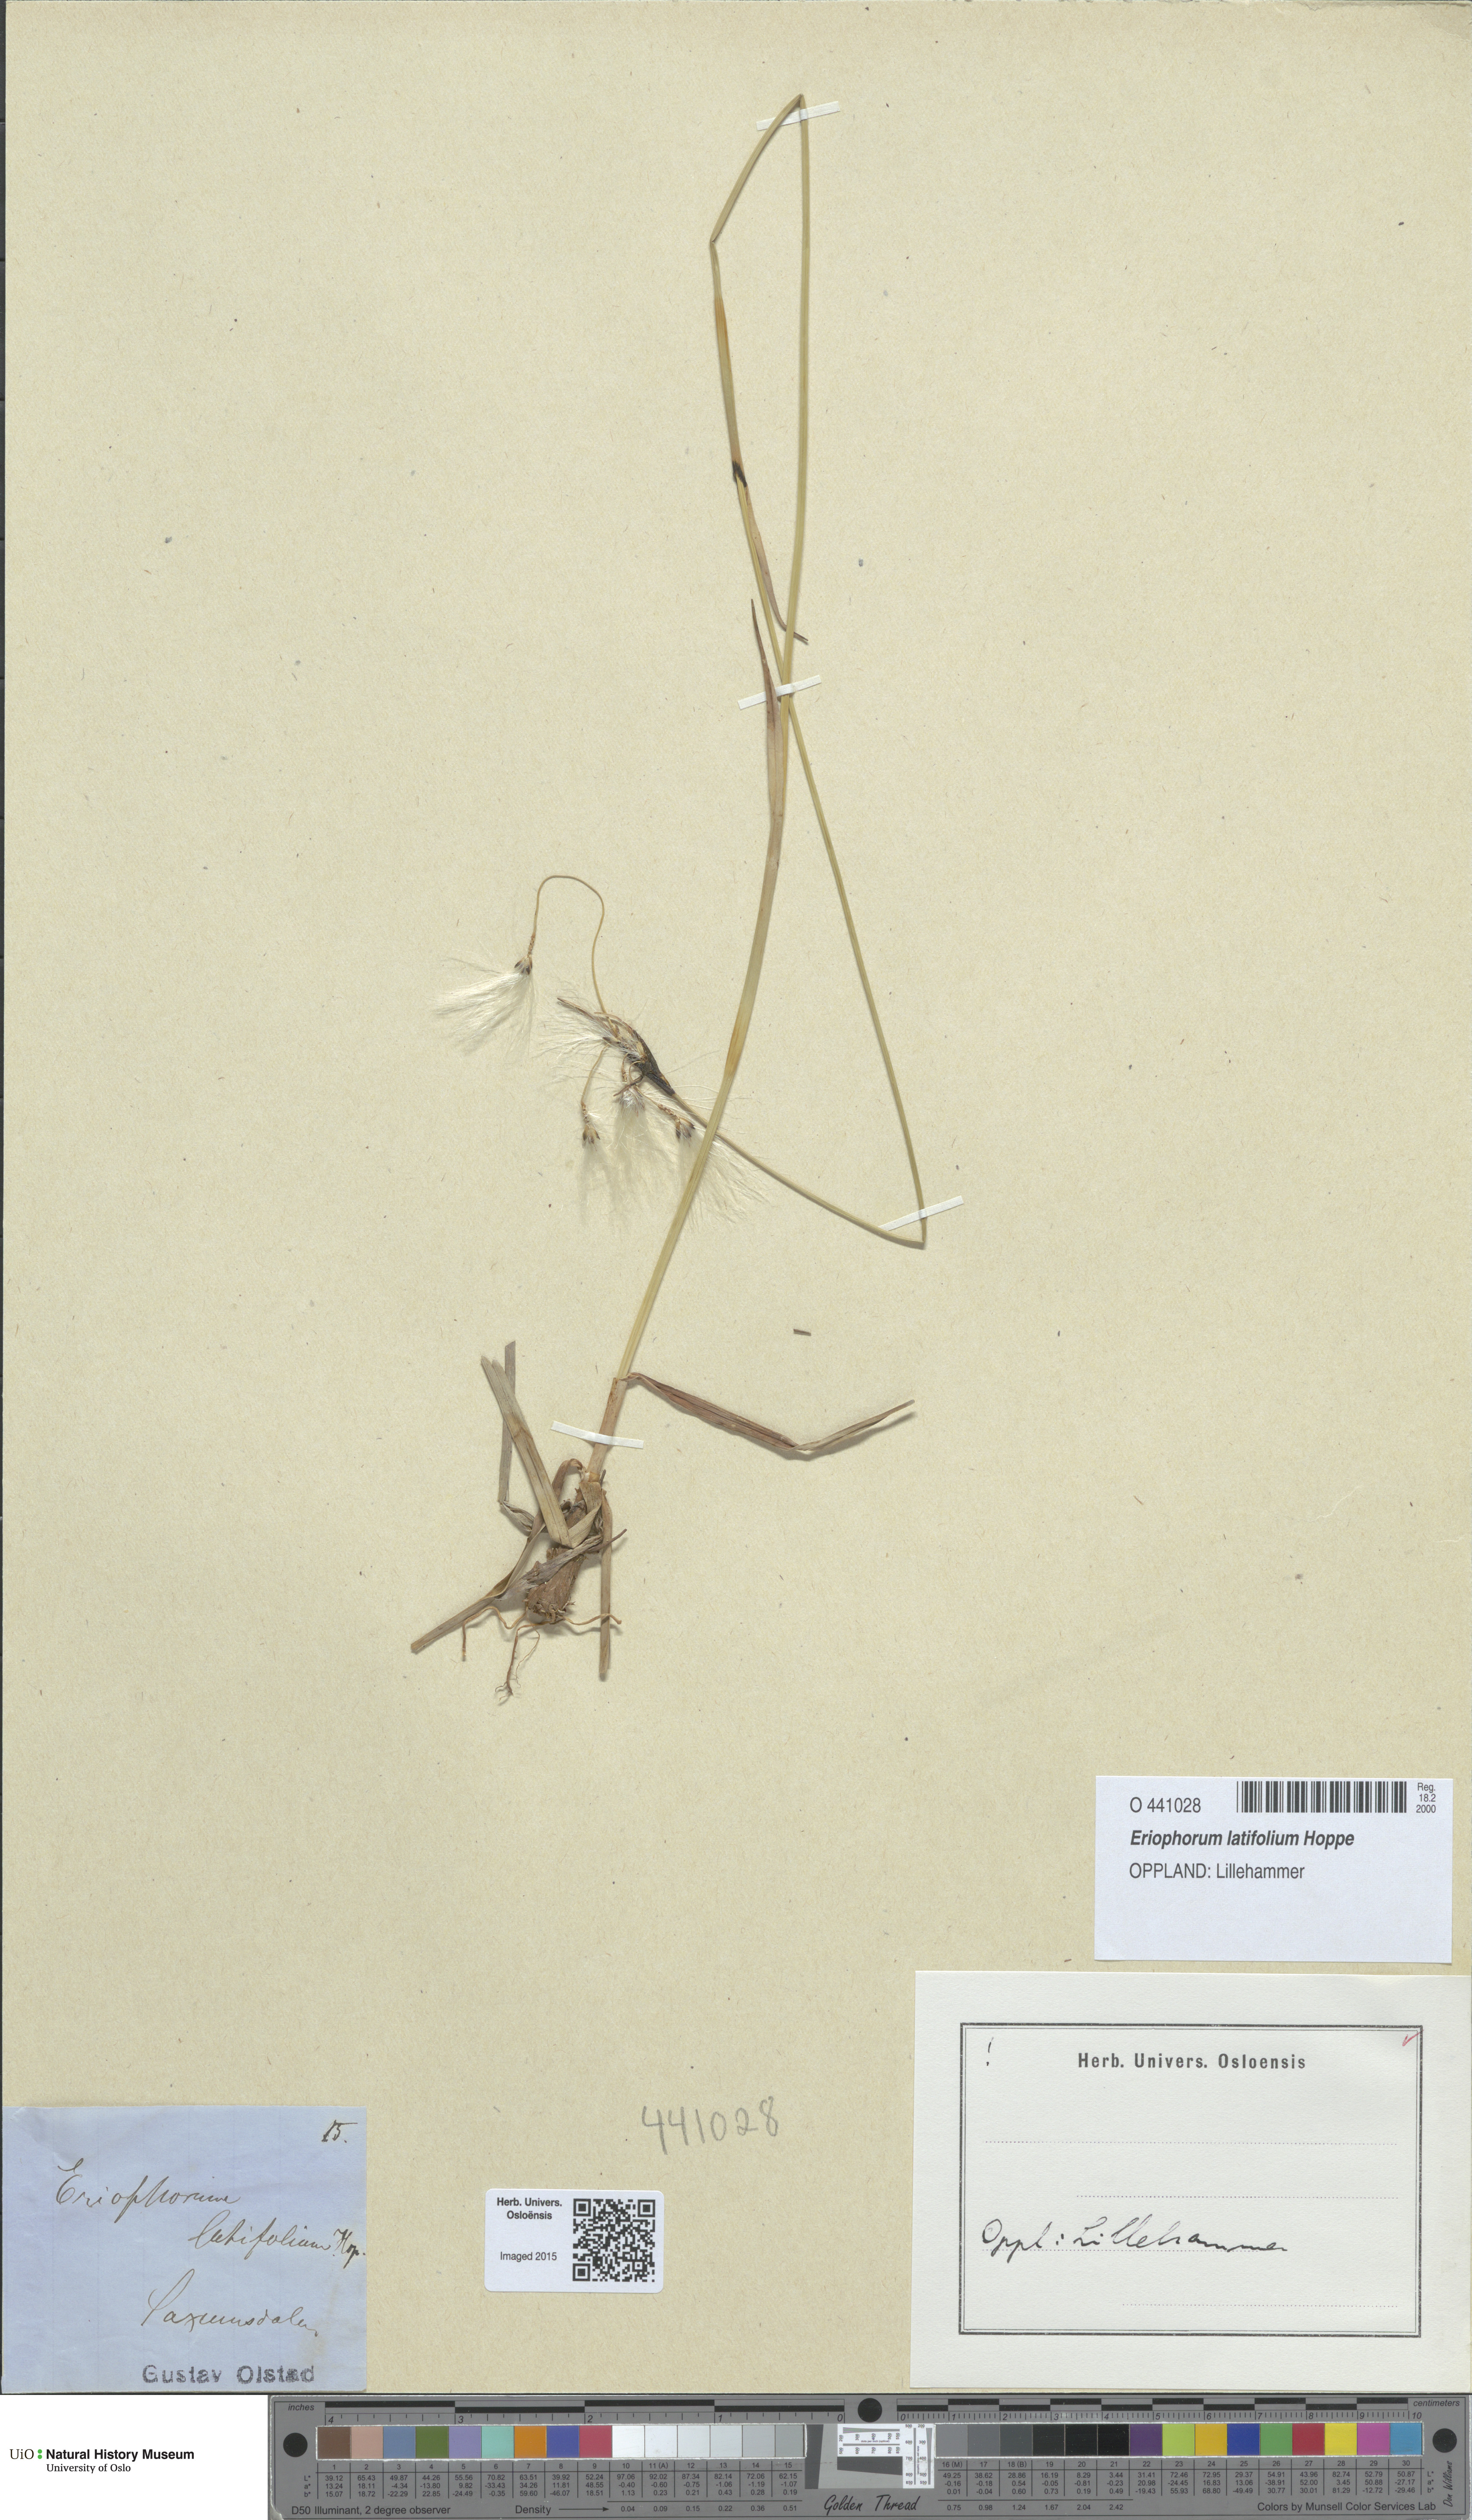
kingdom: Plantae
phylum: Tracheophyta
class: Liliopsida
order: Poales
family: Cyperaceae
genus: Eriophorum
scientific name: Eriophorum latifolium
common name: Broad-leaved cottongrass
